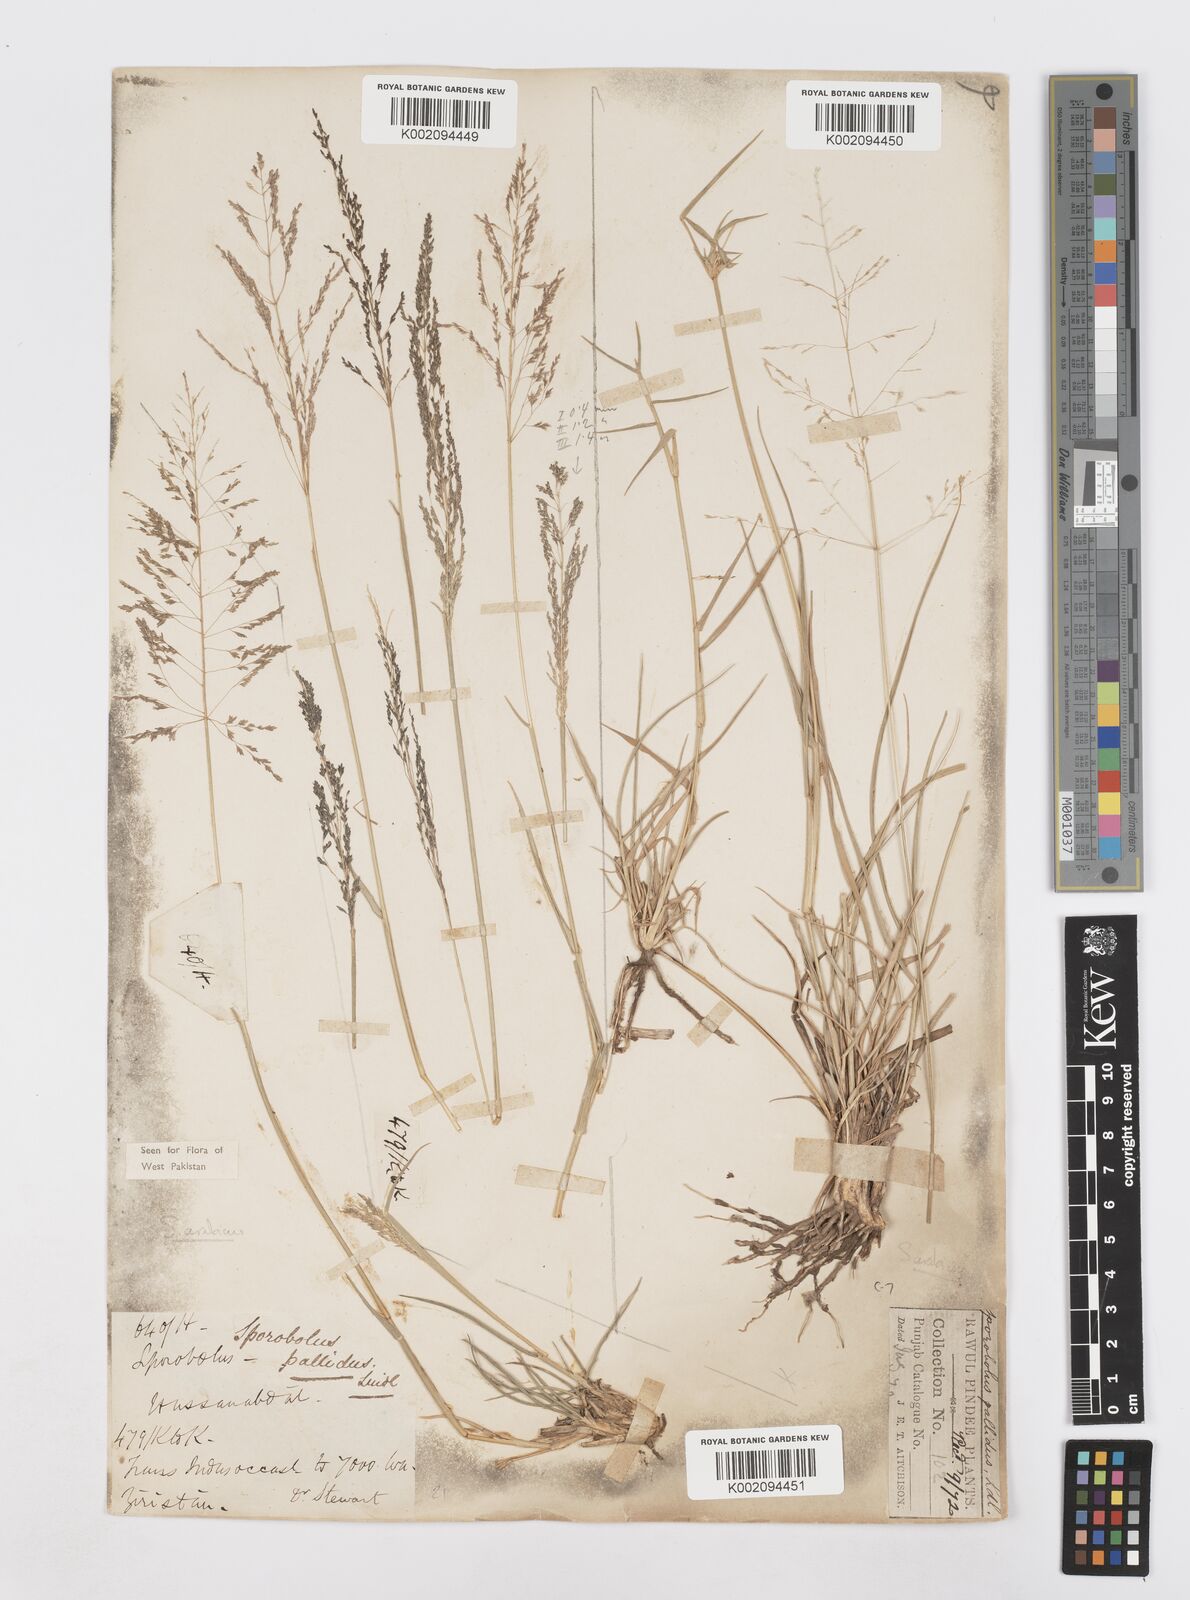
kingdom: Plantae
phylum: Tracheophyta
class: Liliopsida
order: Poales
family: Poaceae
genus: Sporobolus
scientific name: Sporobolus ioclados
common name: Pan dropseed
